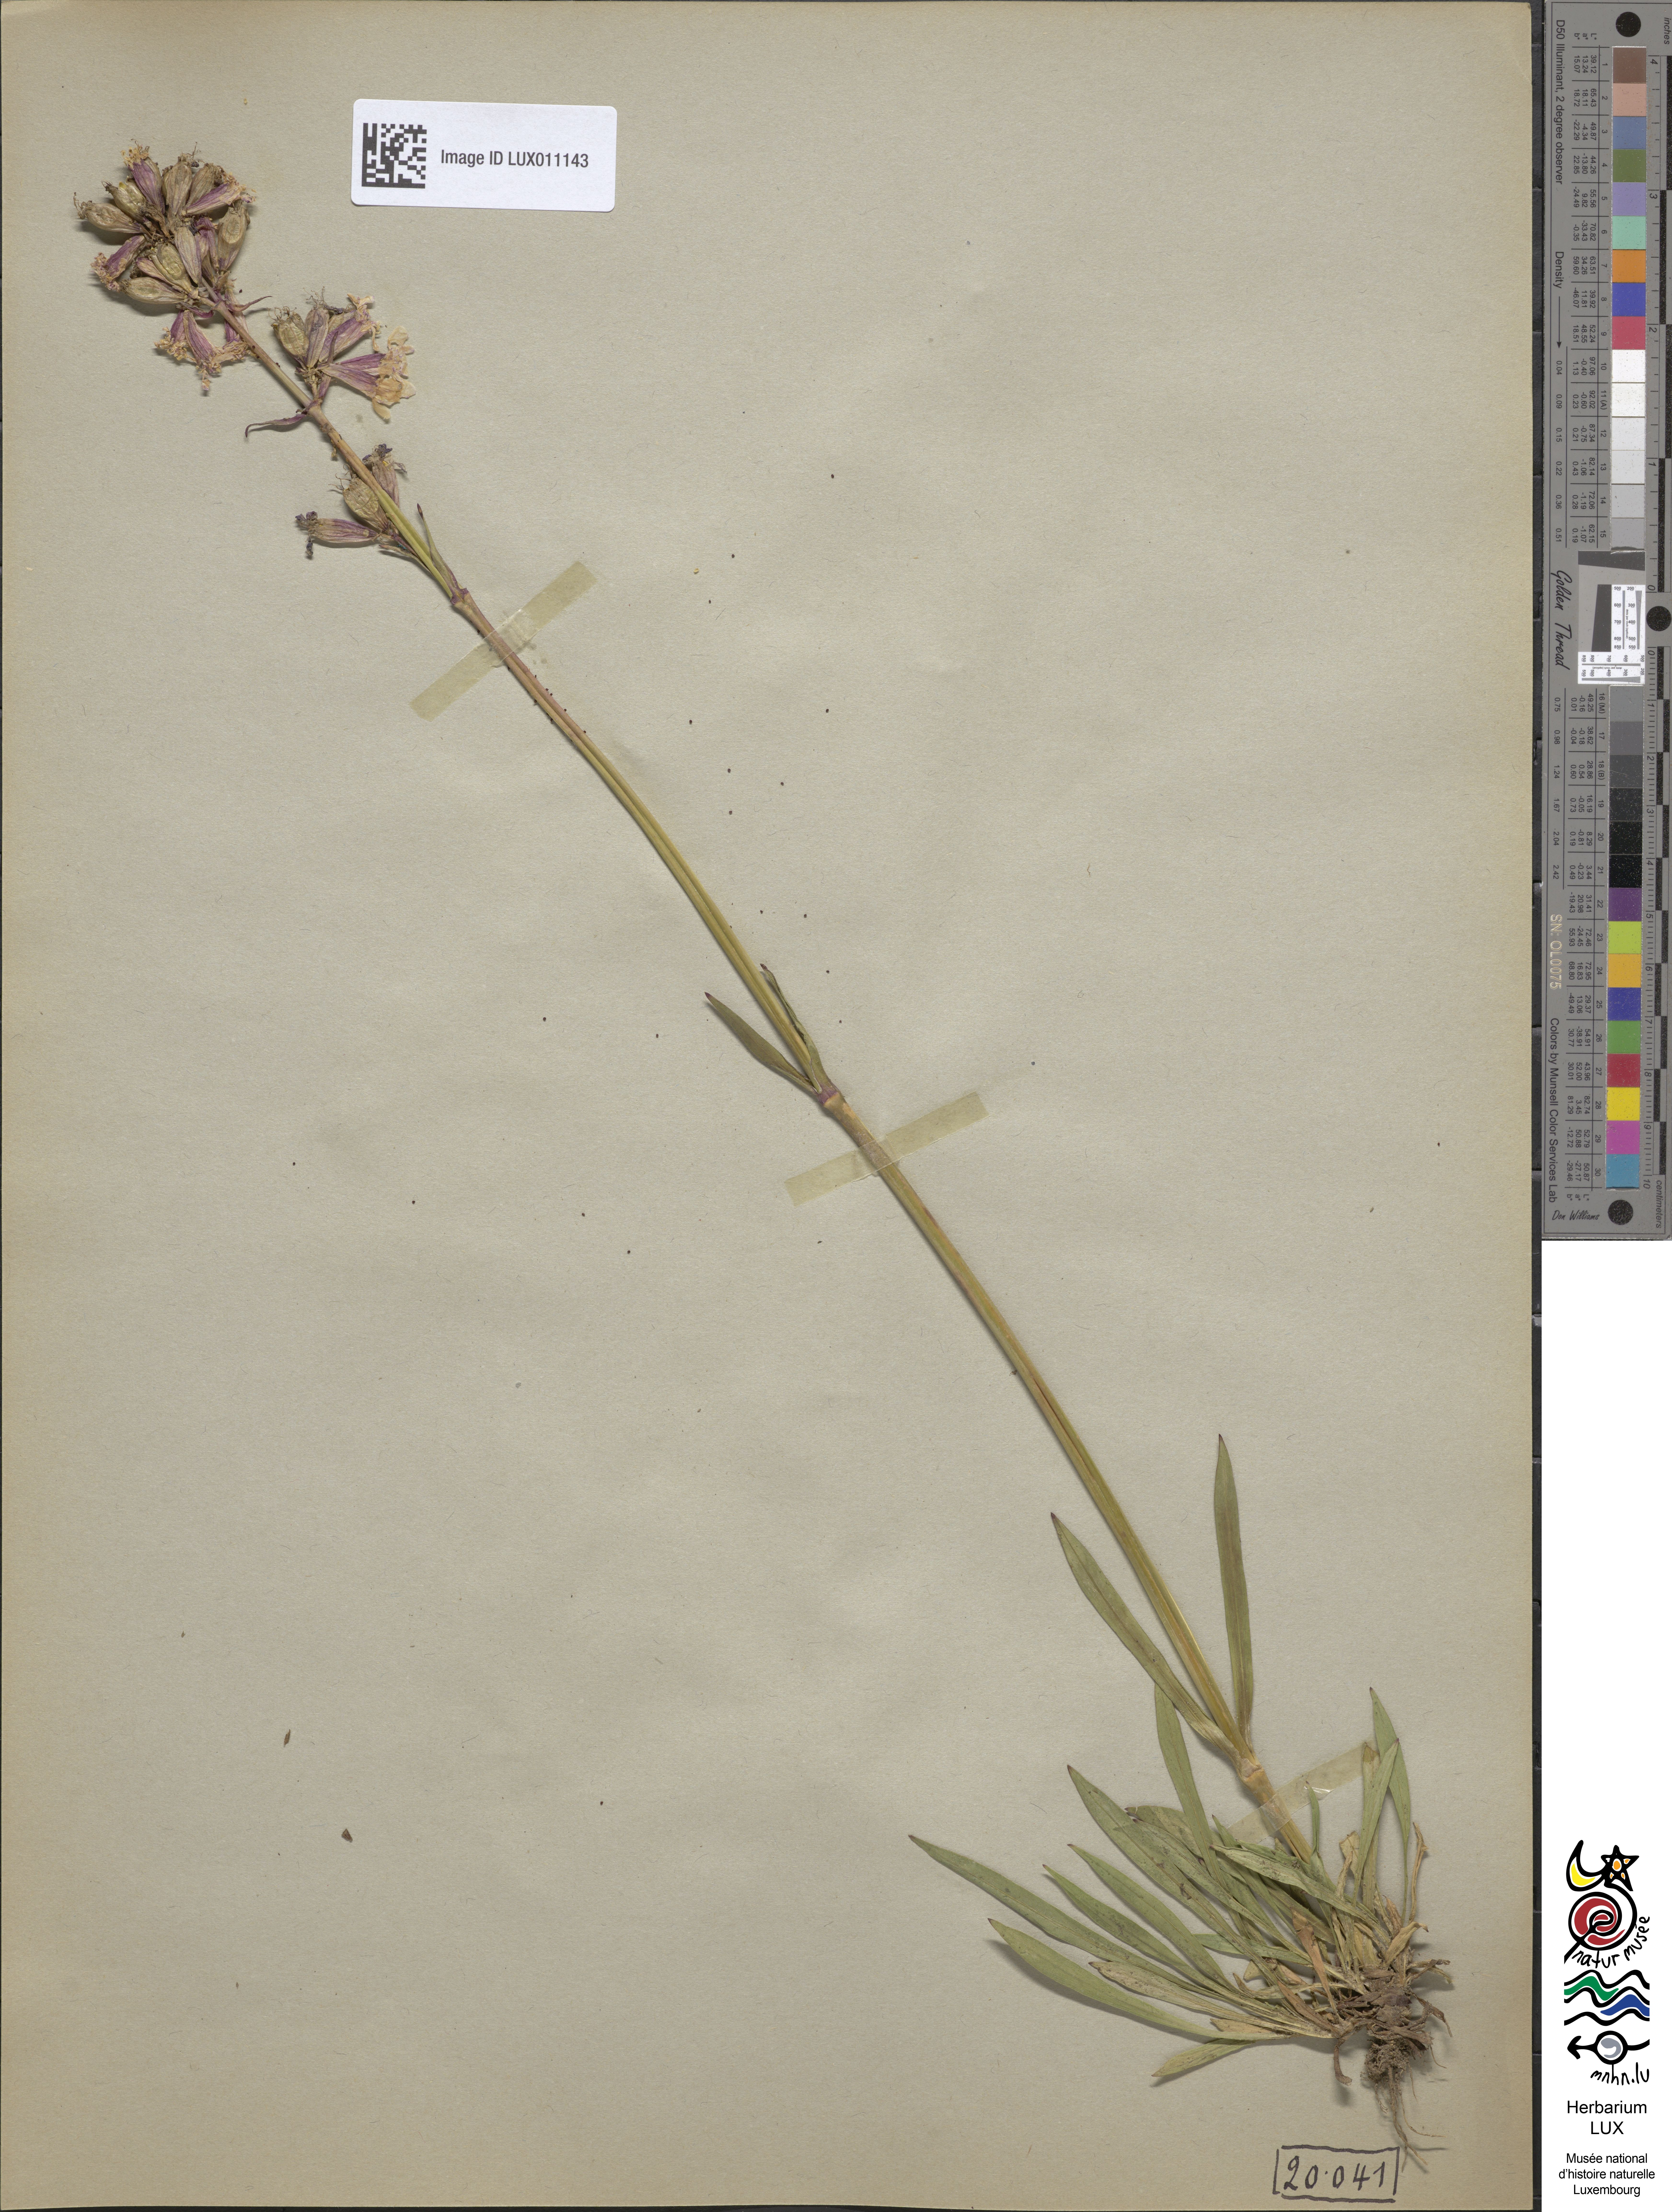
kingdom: Plantae
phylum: Tracheophyta
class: Magnoliopsida
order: Caryophyllales
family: Caryophyllaceae
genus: Viscaria
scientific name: Viscaria vulgaris
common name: Clammy campion
